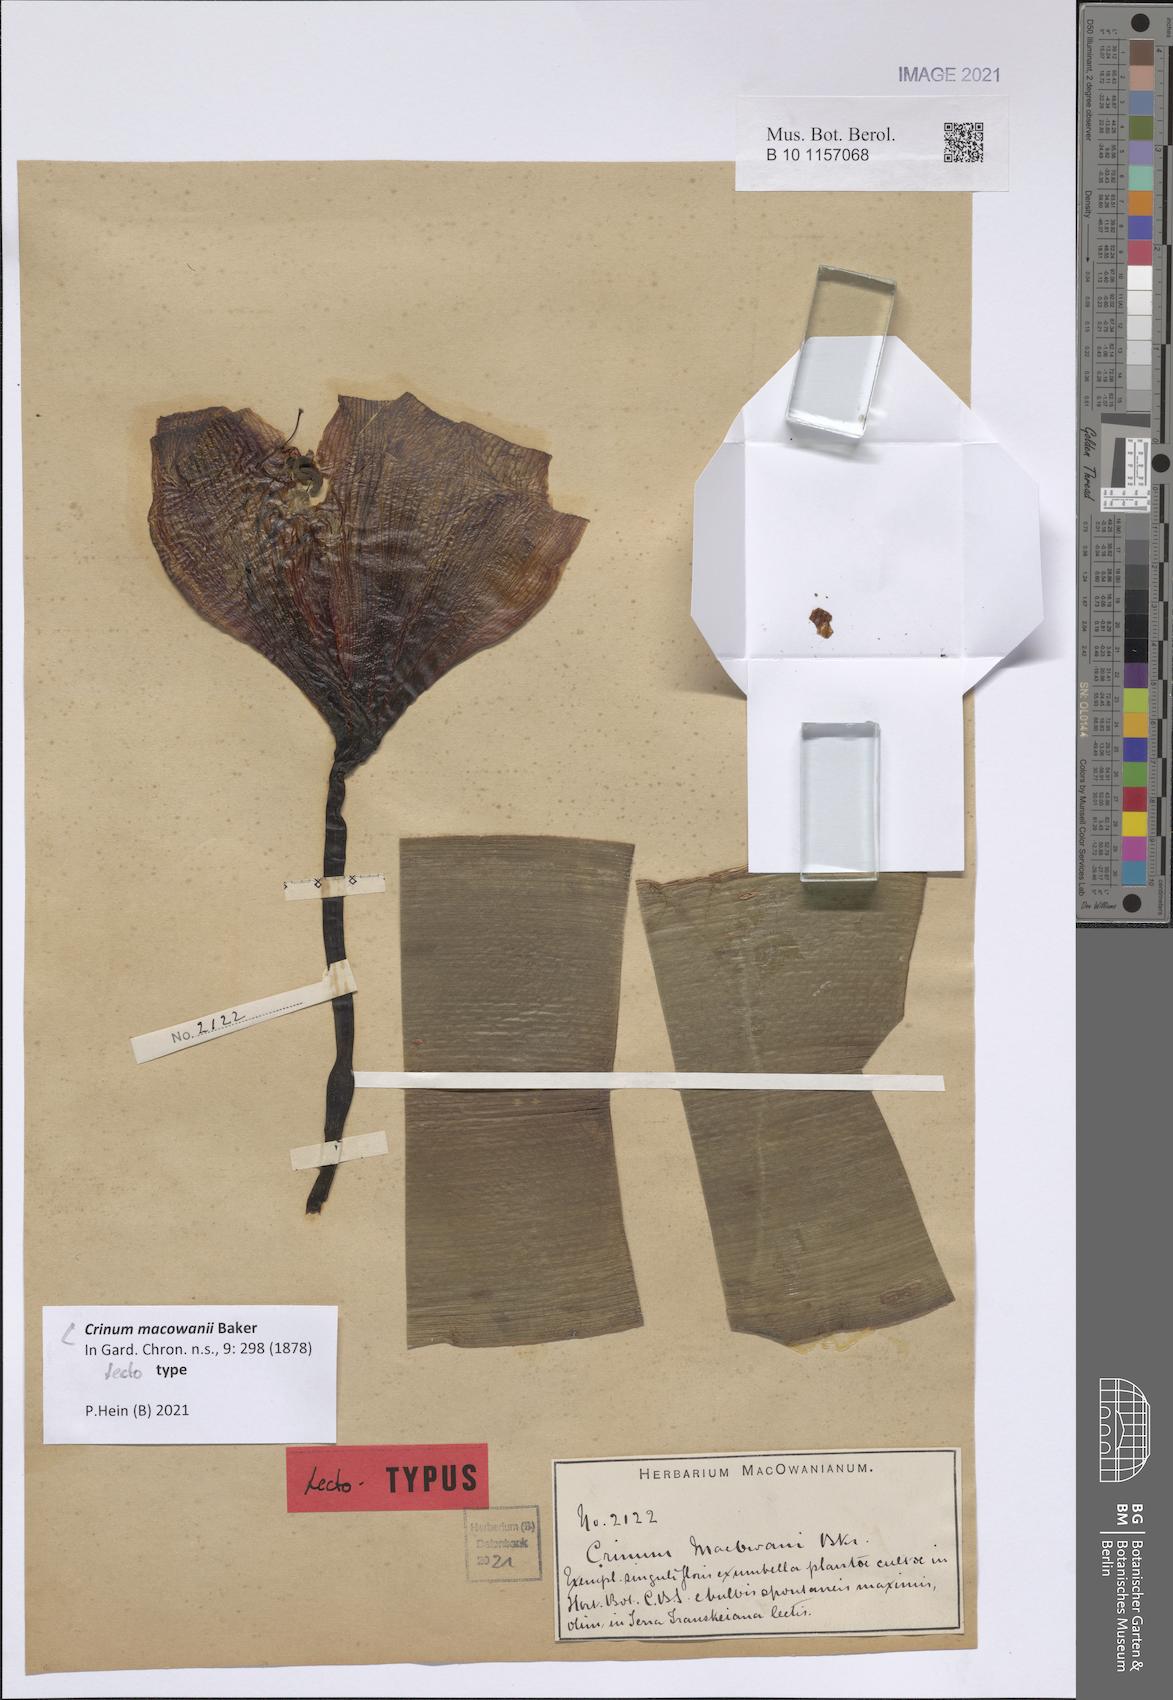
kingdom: Plantae
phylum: Tracheophyta
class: Liliopsida
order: Asparagales
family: Amaryllidaceae
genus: Crinum
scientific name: Crinum macowanii
